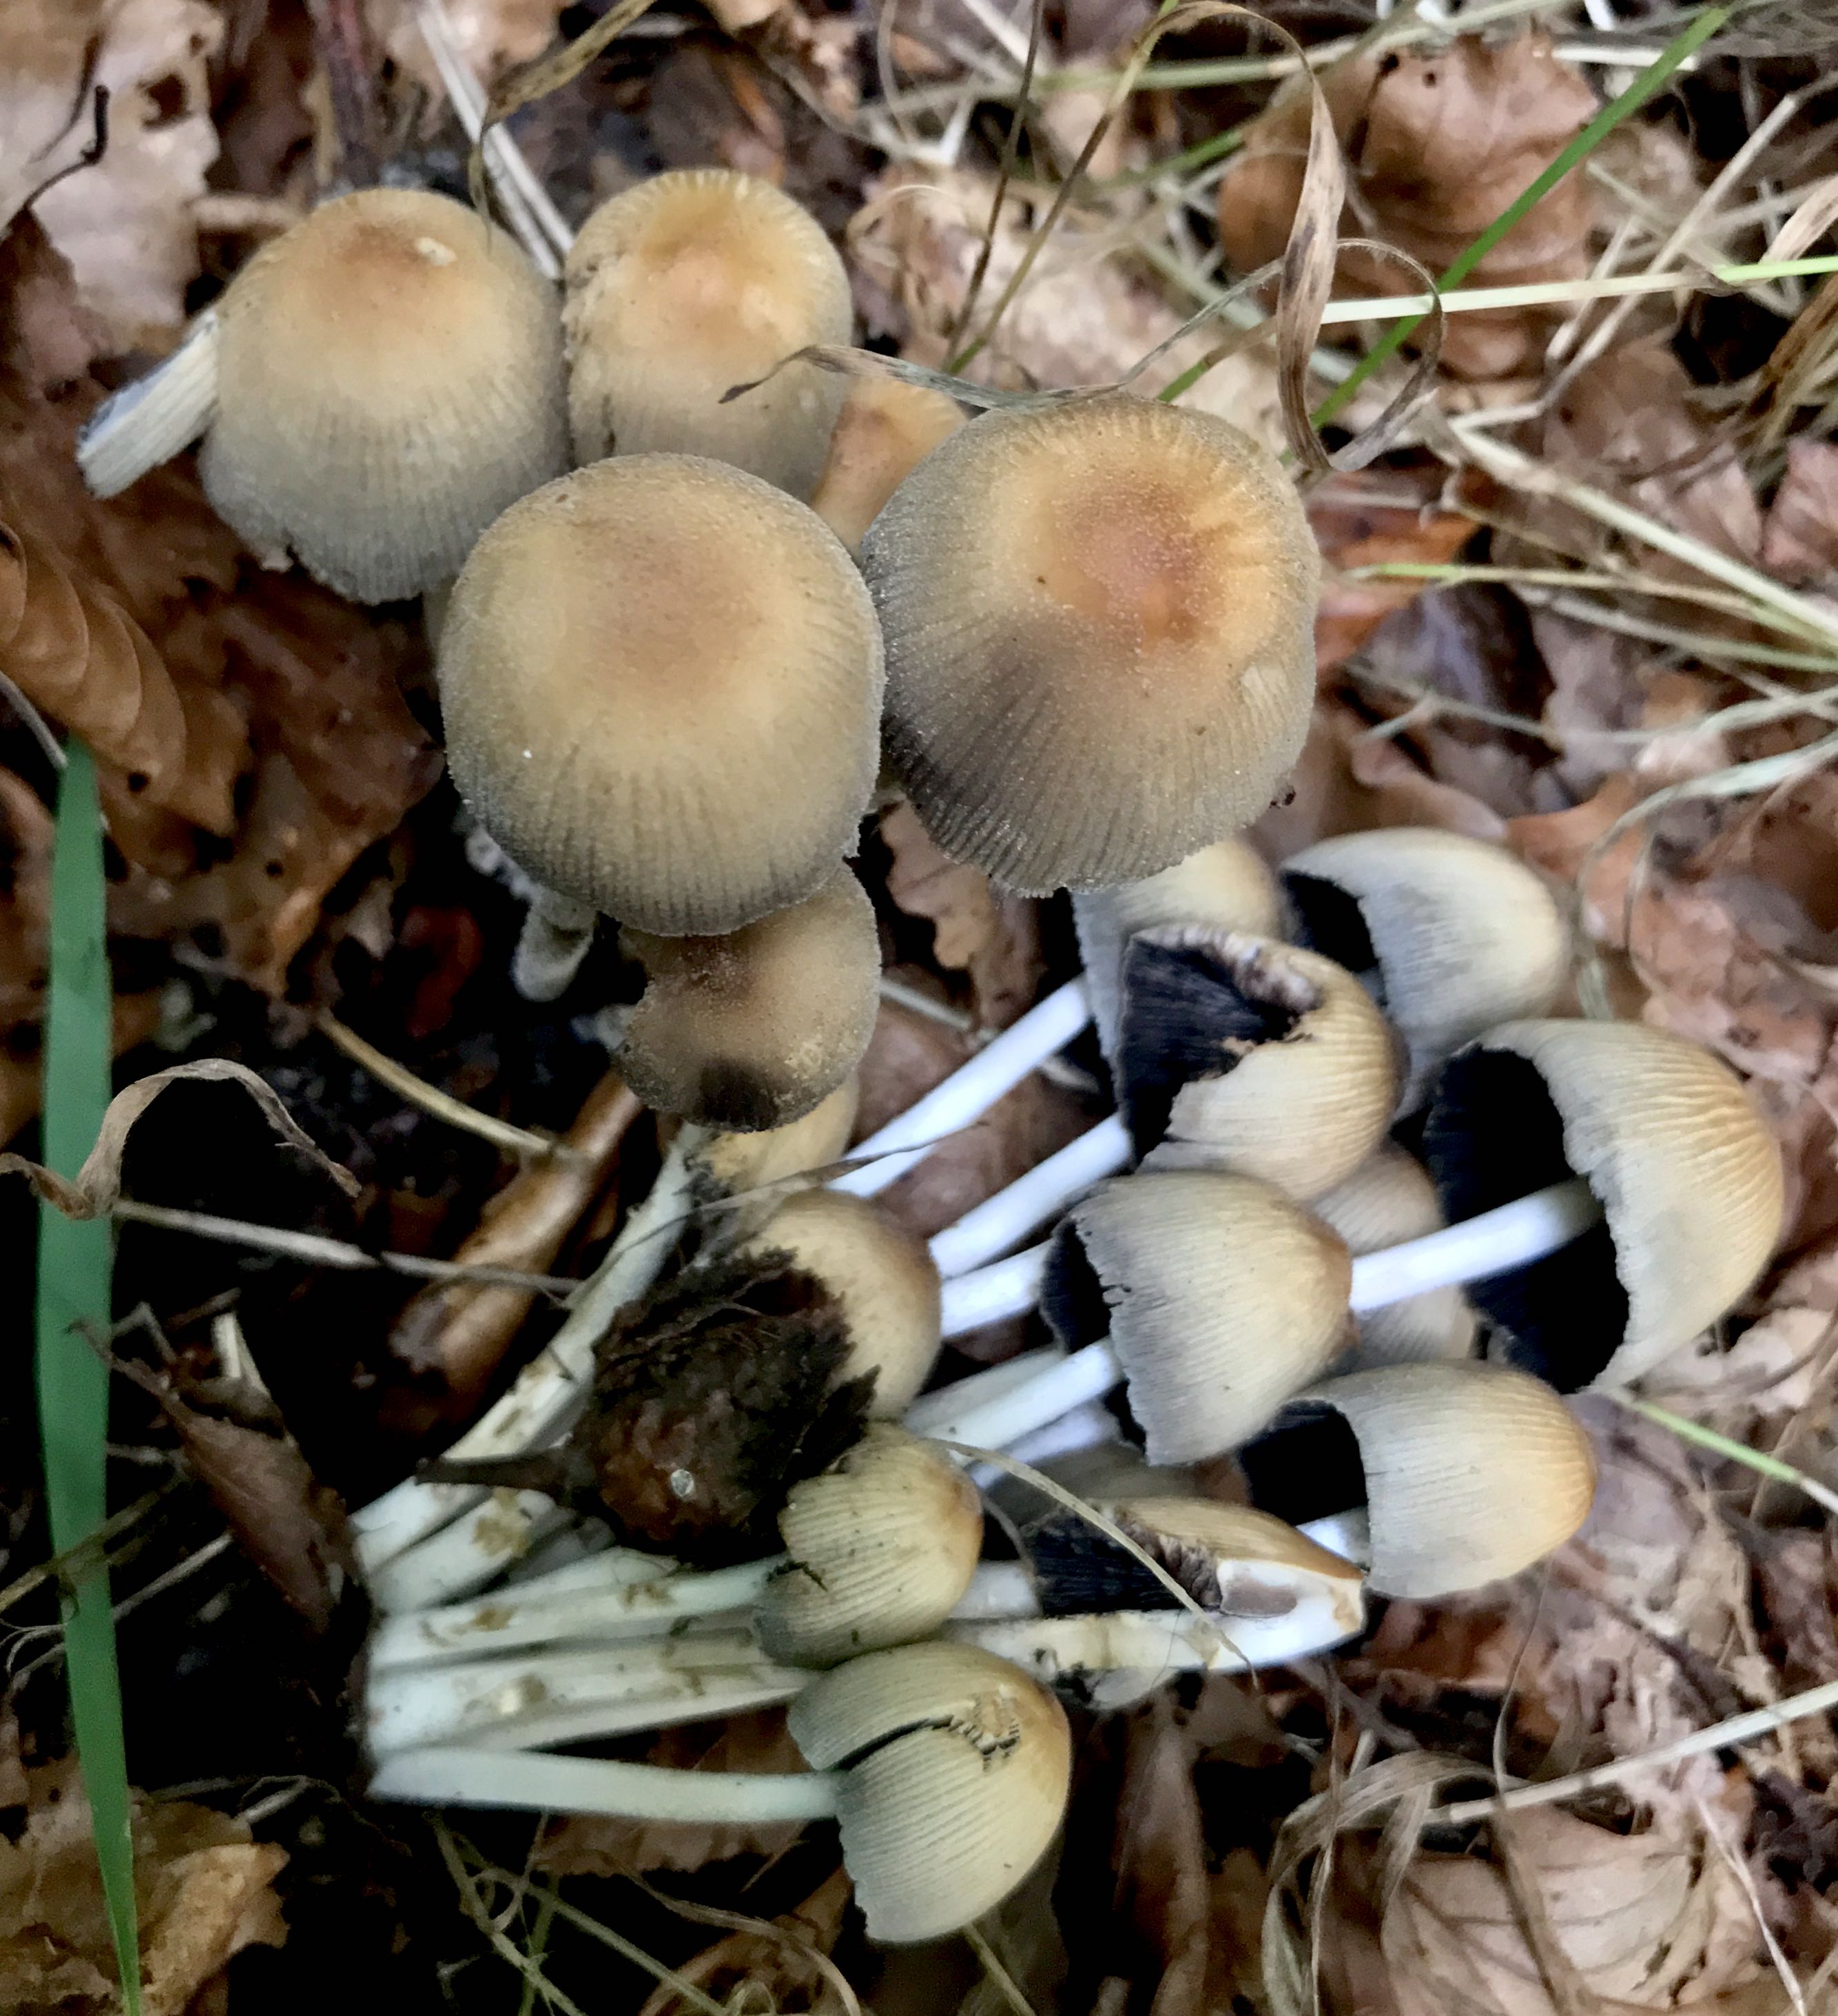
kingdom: Fungi
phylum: Basidiomycota
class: Agaricomycetes
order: Agaricales
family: Psathyrellaceae
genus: Coprinellus
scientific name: Coprinellus micaceus
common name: glimmer-blækhat
